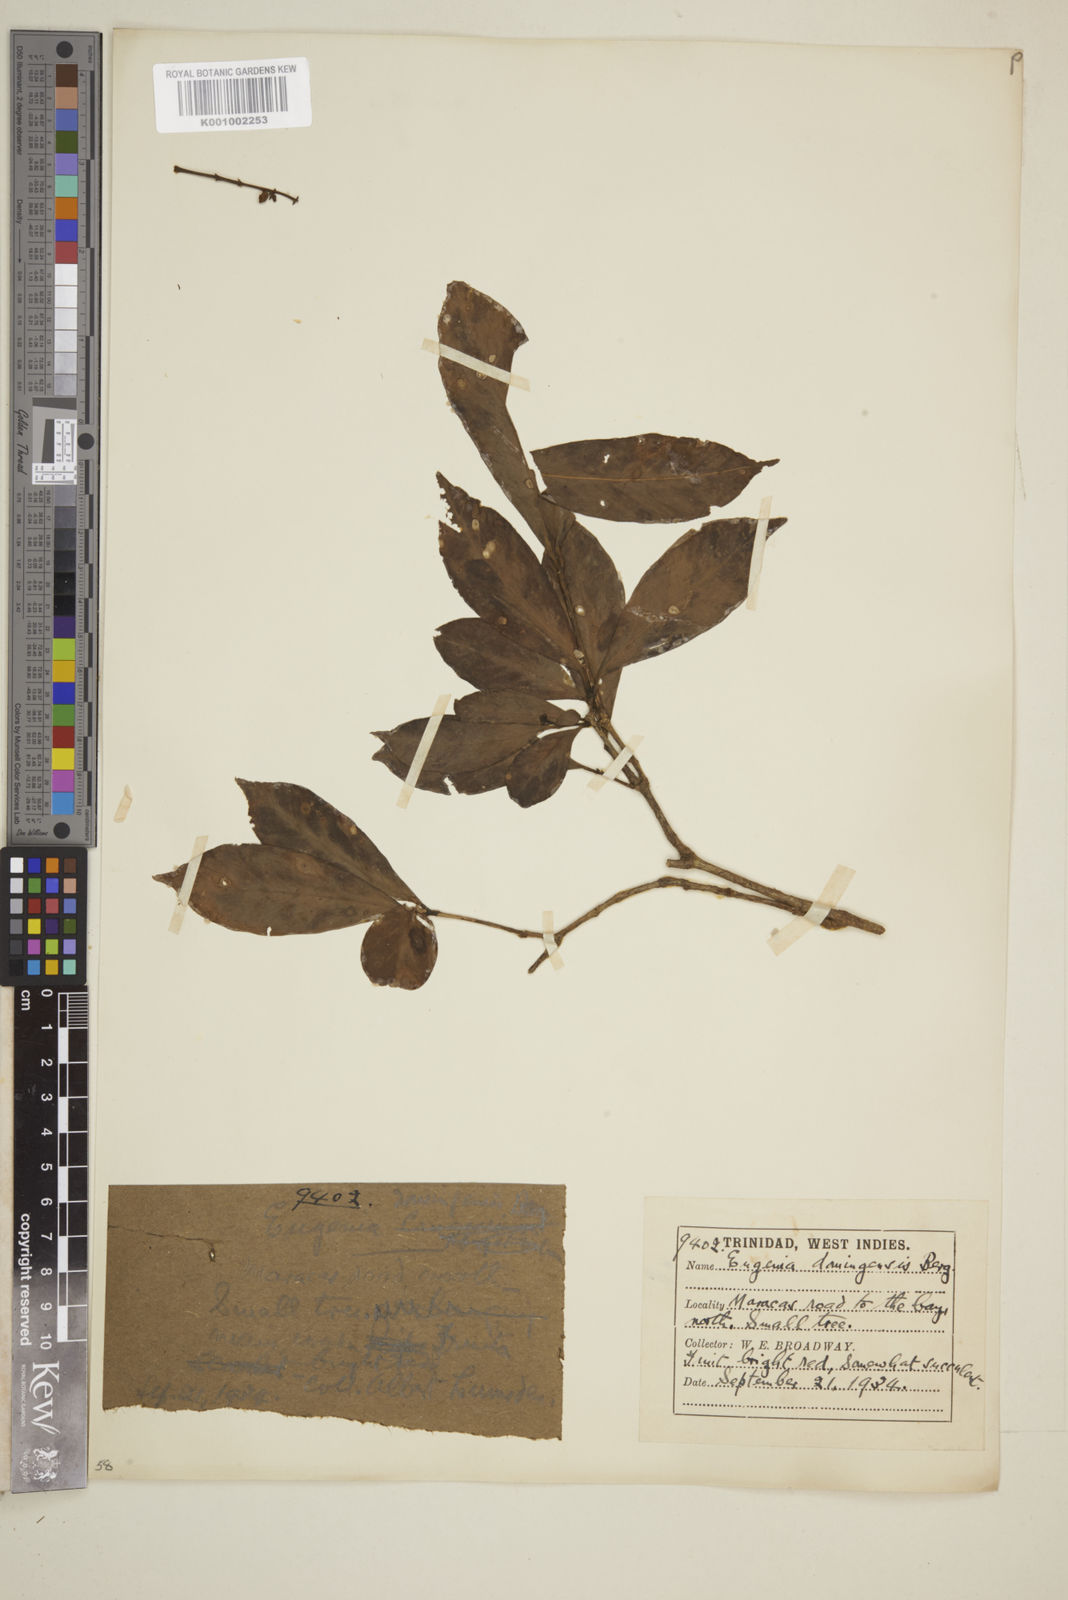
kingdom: Plantae
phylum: Tracheophyta
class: Magnoliopsida
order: Myrtales
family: Myrtaceae
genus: Eugenia
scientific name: Eugenia domingensis
